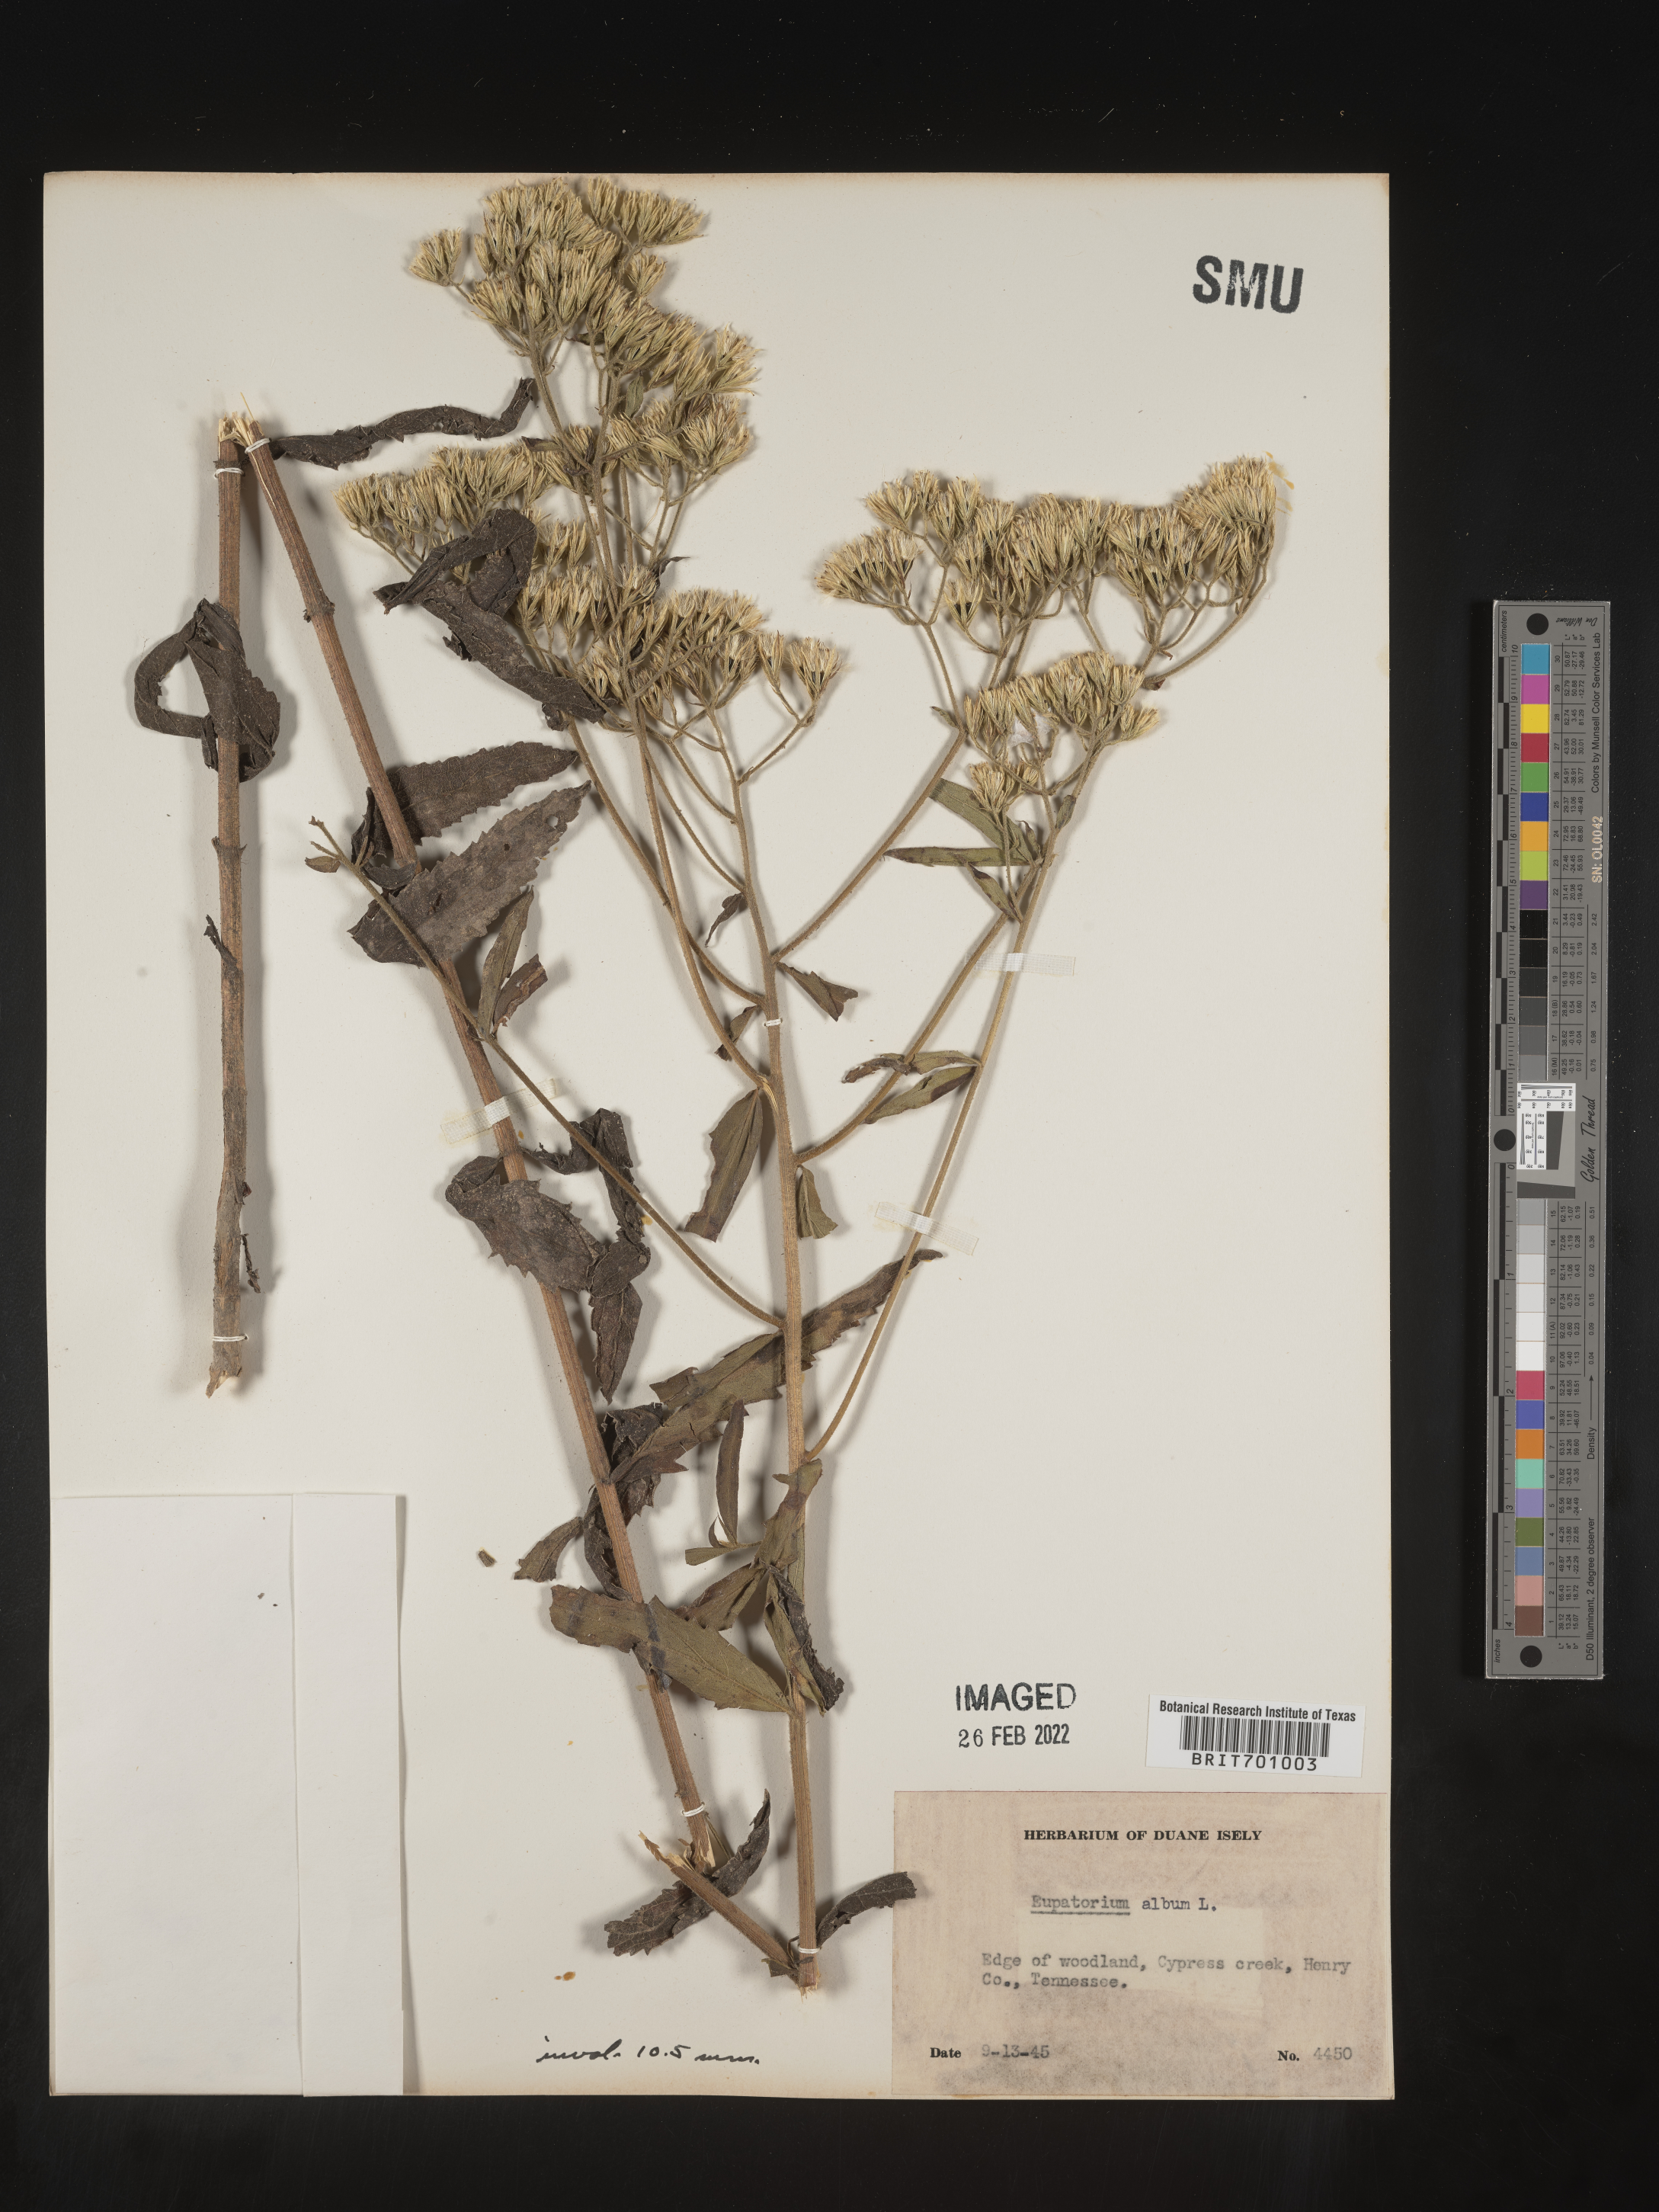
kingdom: Plantae
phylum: Tracheophyta
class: Magnoliopsida
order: Asterales
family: Asteraceae
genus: Eupatorium
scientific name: Eupatorium album
